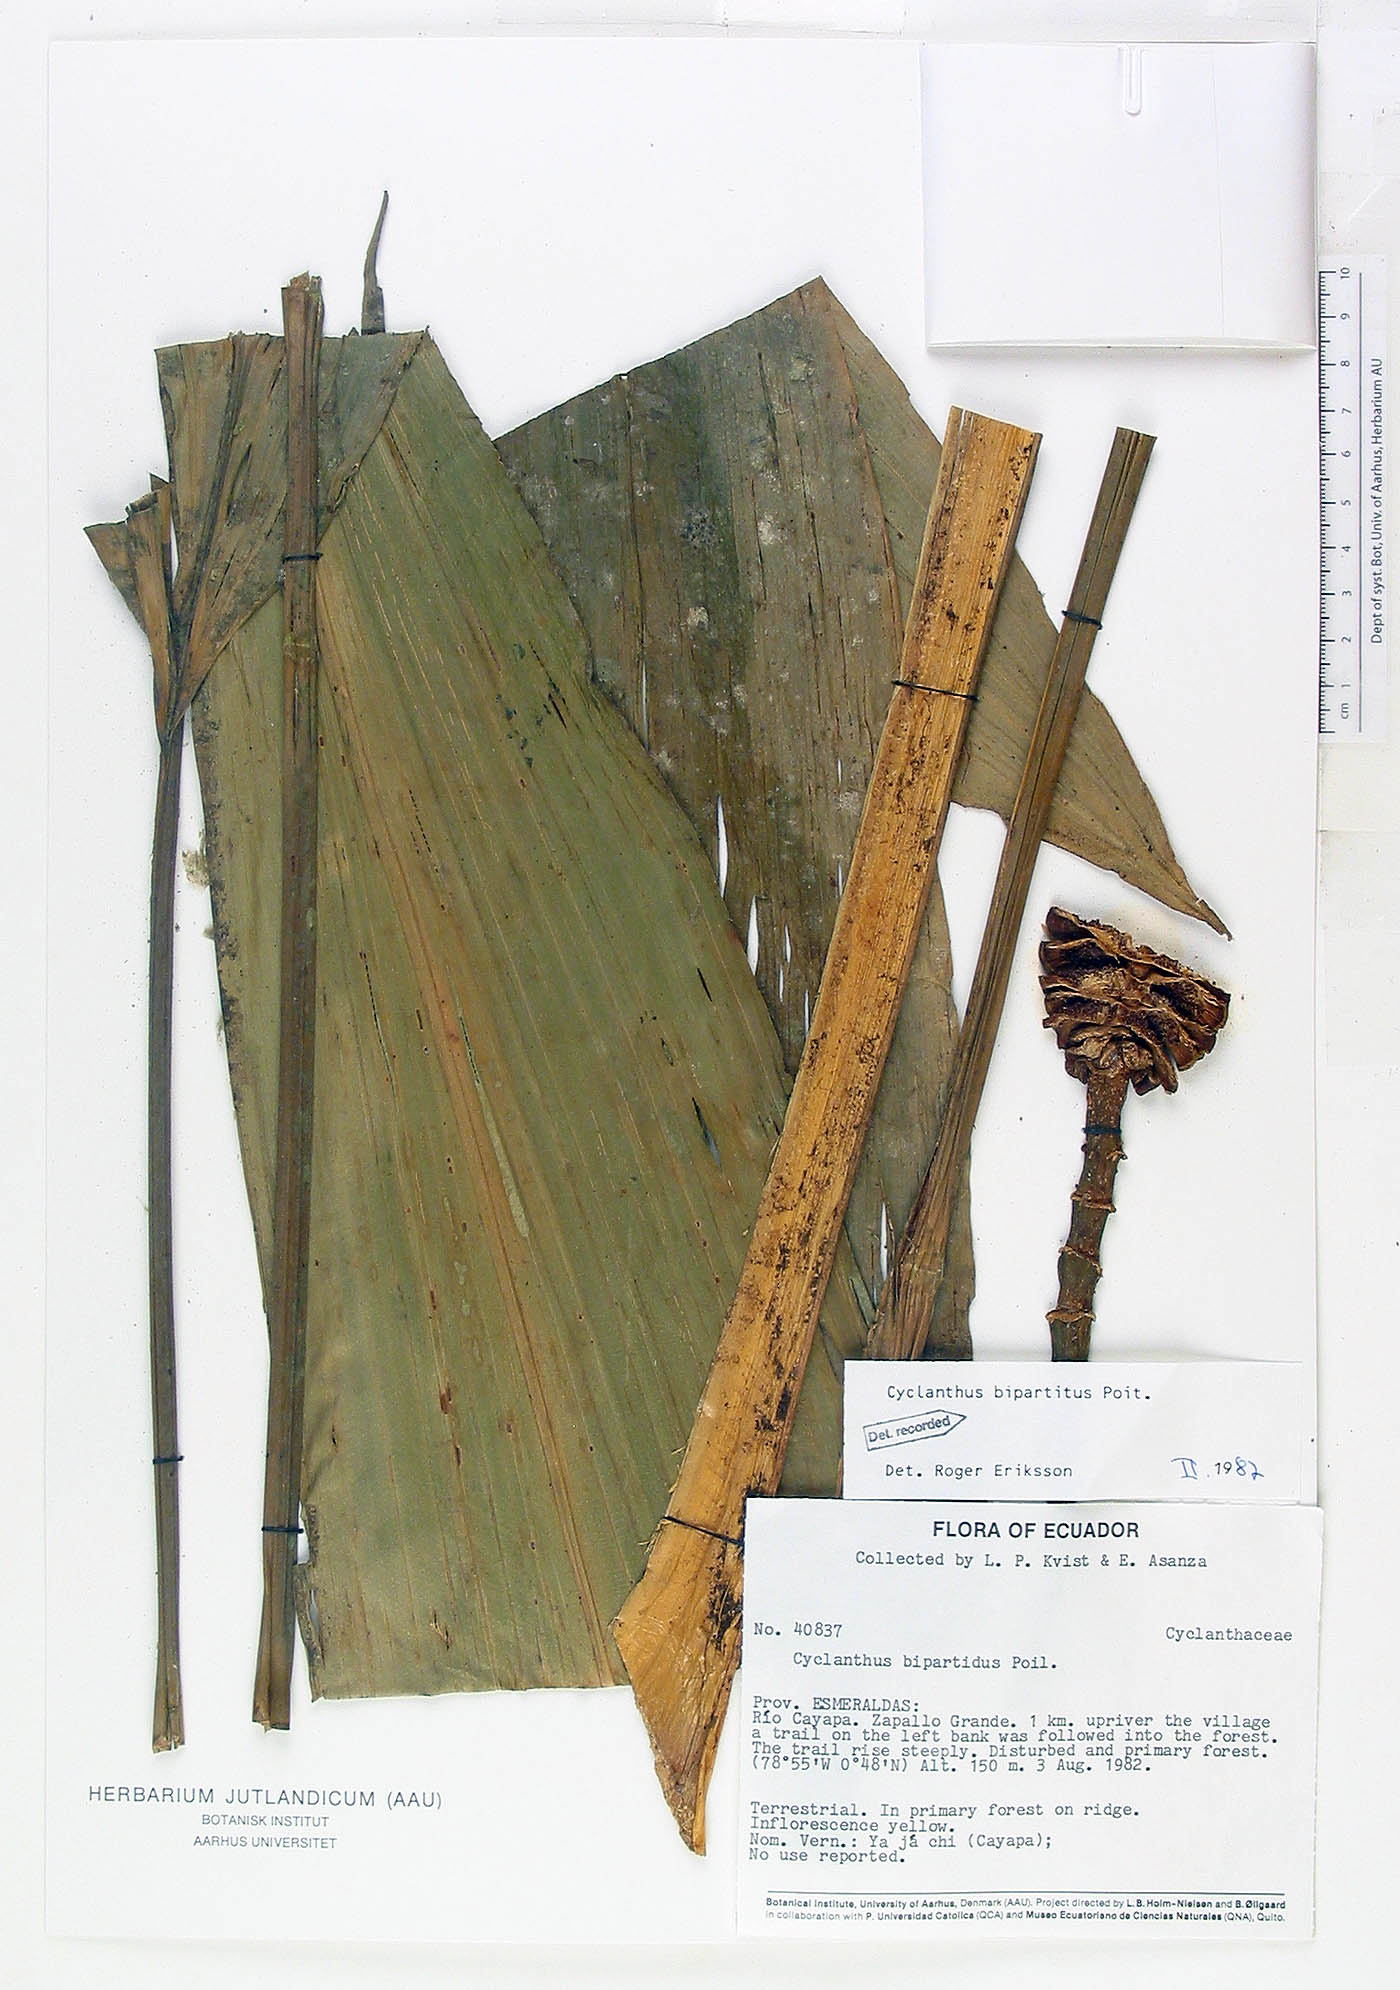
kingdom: Plantae
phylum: Tracheophyta
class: Liliopsida
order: Pandanales
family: Cyclanthaceae
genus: Cyclanthus
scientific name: Cyclanthus bipartitus
